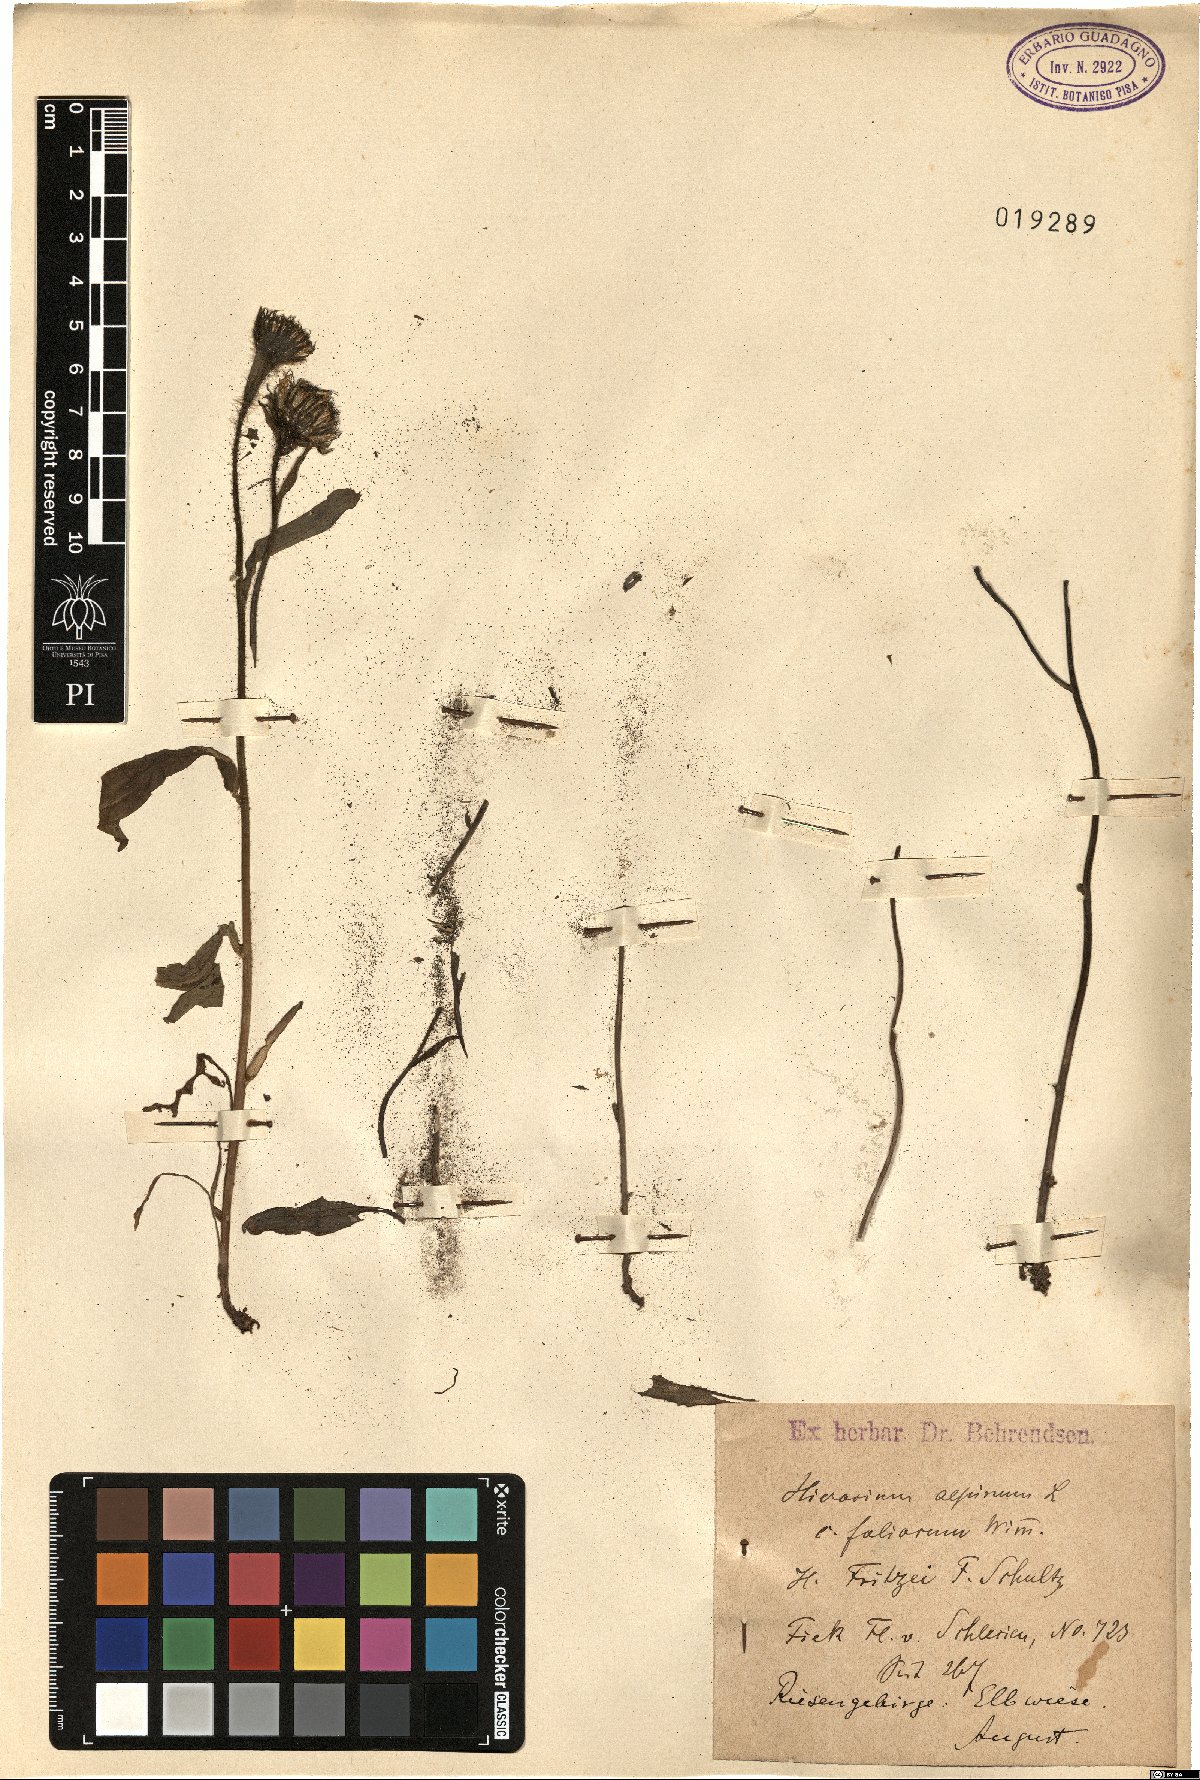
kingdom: Plantae
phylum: Tracheophyta
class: Magnoliopsida
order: Asterales
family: Asteraceae
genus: Hieracium
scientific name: Hieracium alpinum
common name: Alpine hawkweed
